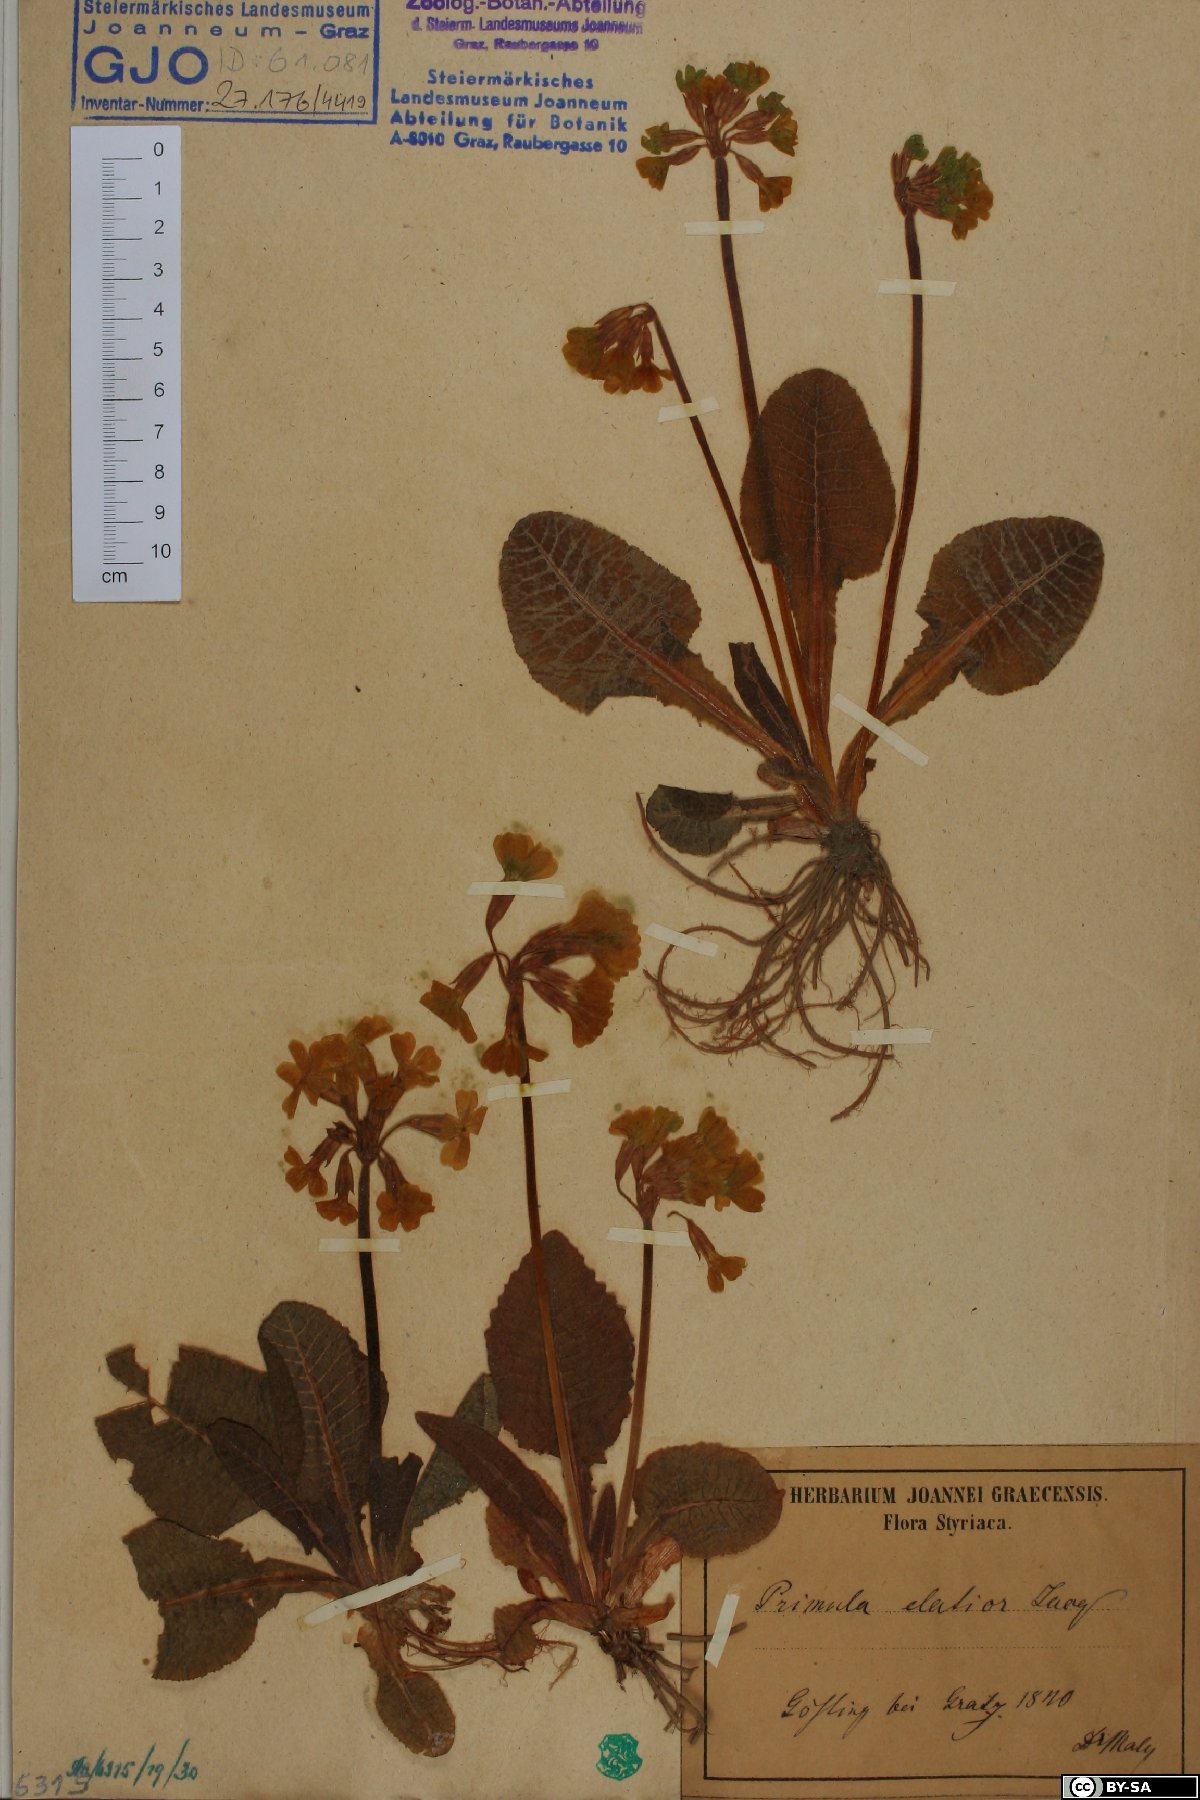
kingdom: Plantae
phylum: Tracheophyta
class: Magnoliopsida
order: Ericales
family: Primulaceae
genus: Primula
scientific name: Primula elatior
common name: Oxlip
